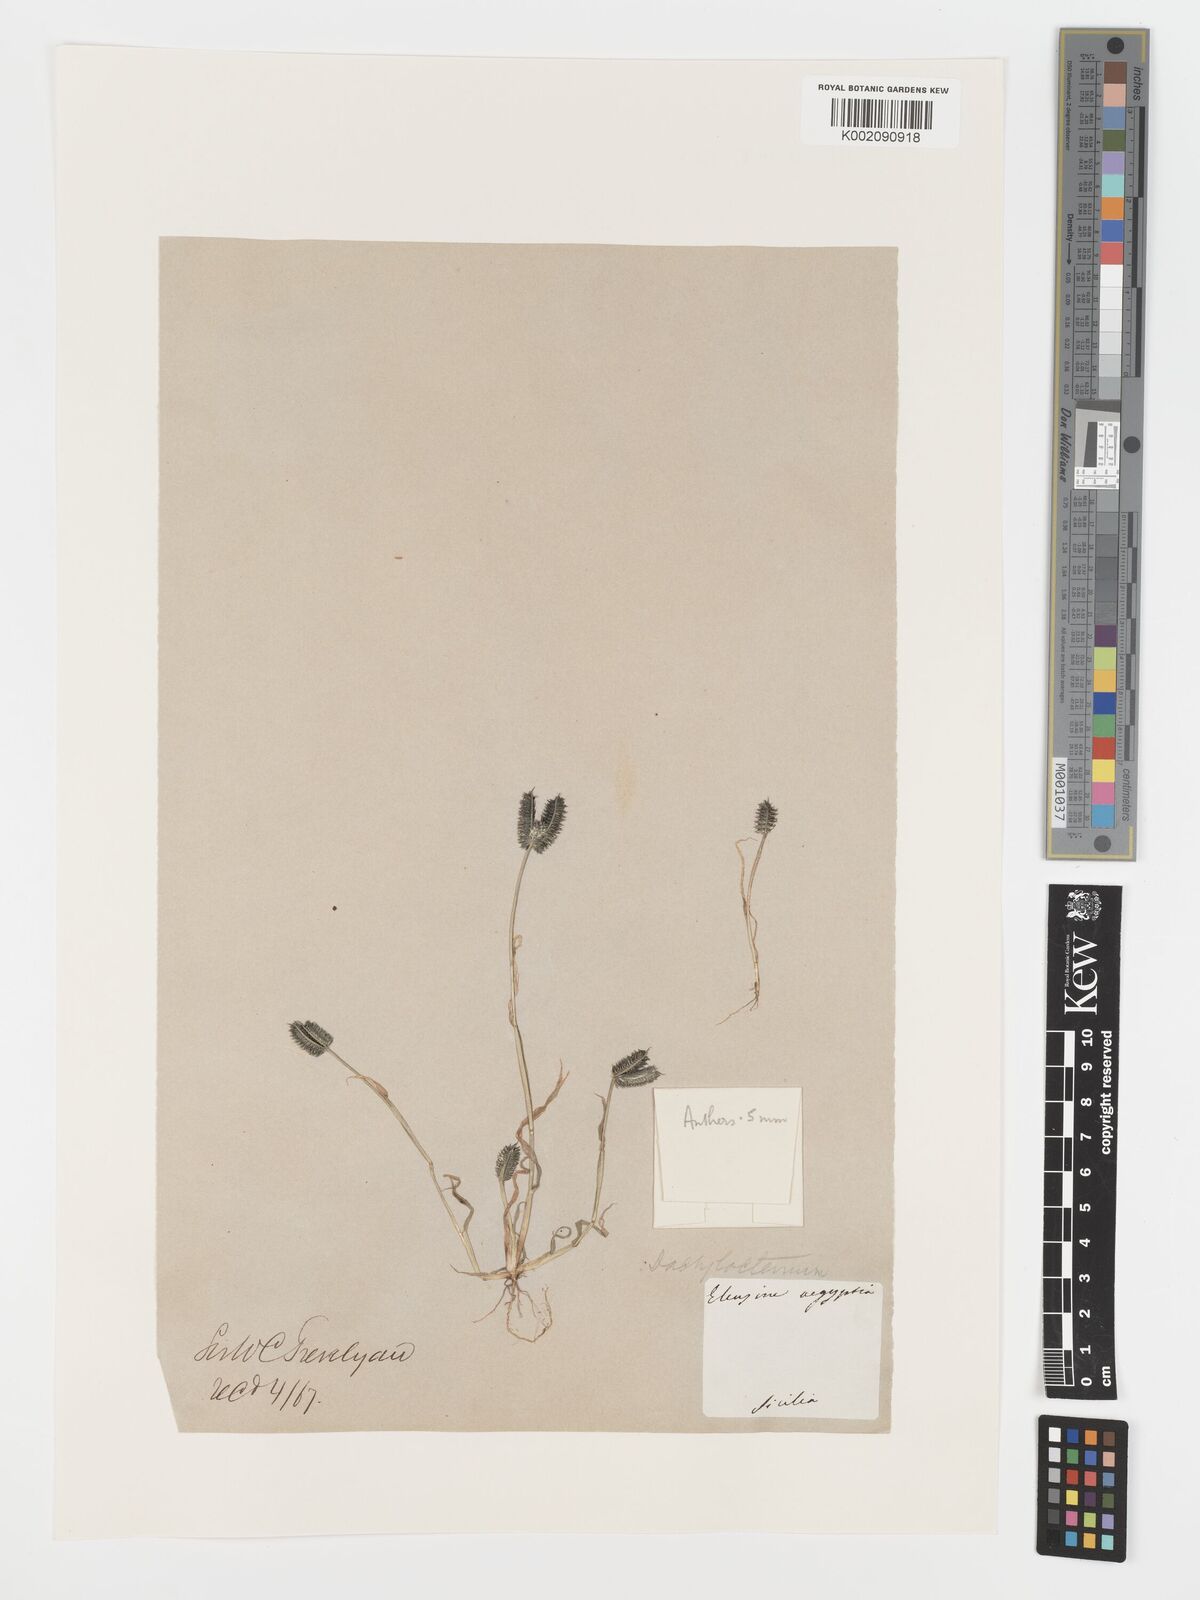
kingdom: Plantae
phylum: Tracheophyta
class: Liliopsida
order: Poales
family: Poaceae
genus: Dactyloctenium
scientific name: Dactyloctenium aegyptium
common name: Egyptian grass
